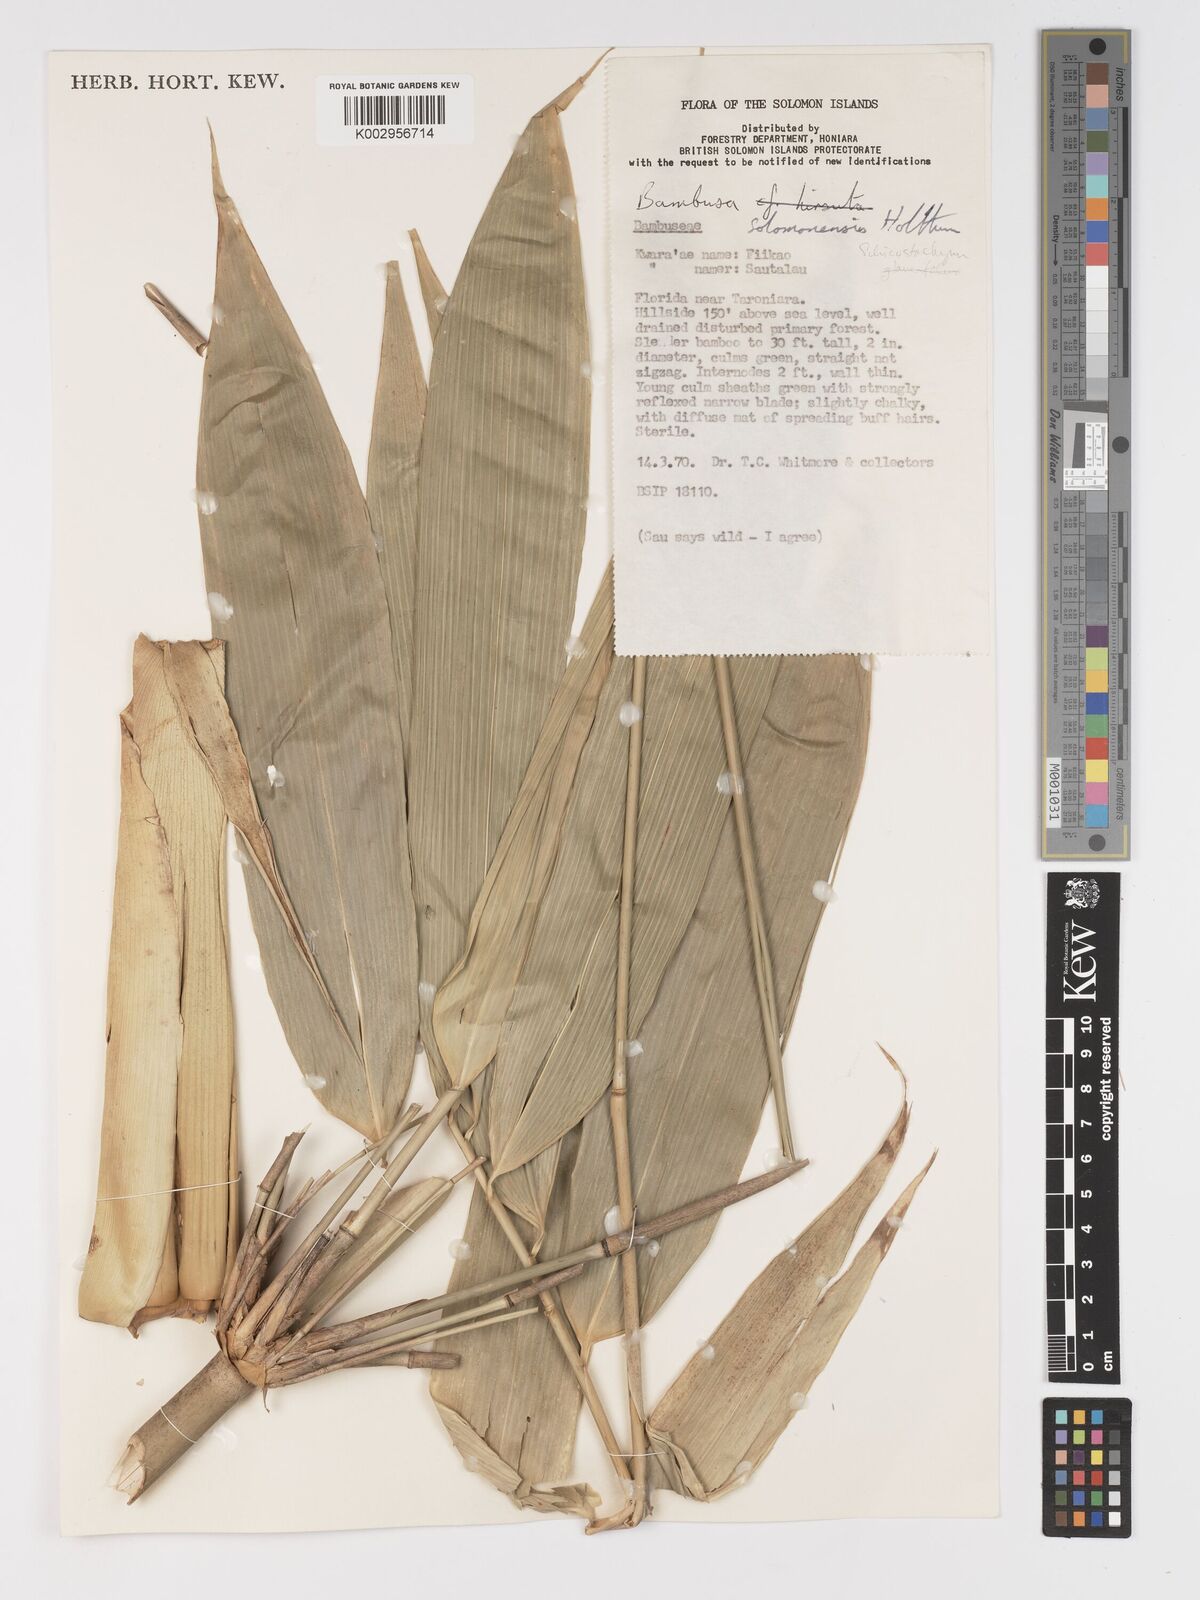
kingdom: Plantae
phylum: Tracheophyta
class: Liliopsida
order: Poales
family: Poaceae
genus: Schizostachyum
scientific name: Schizostachyum
